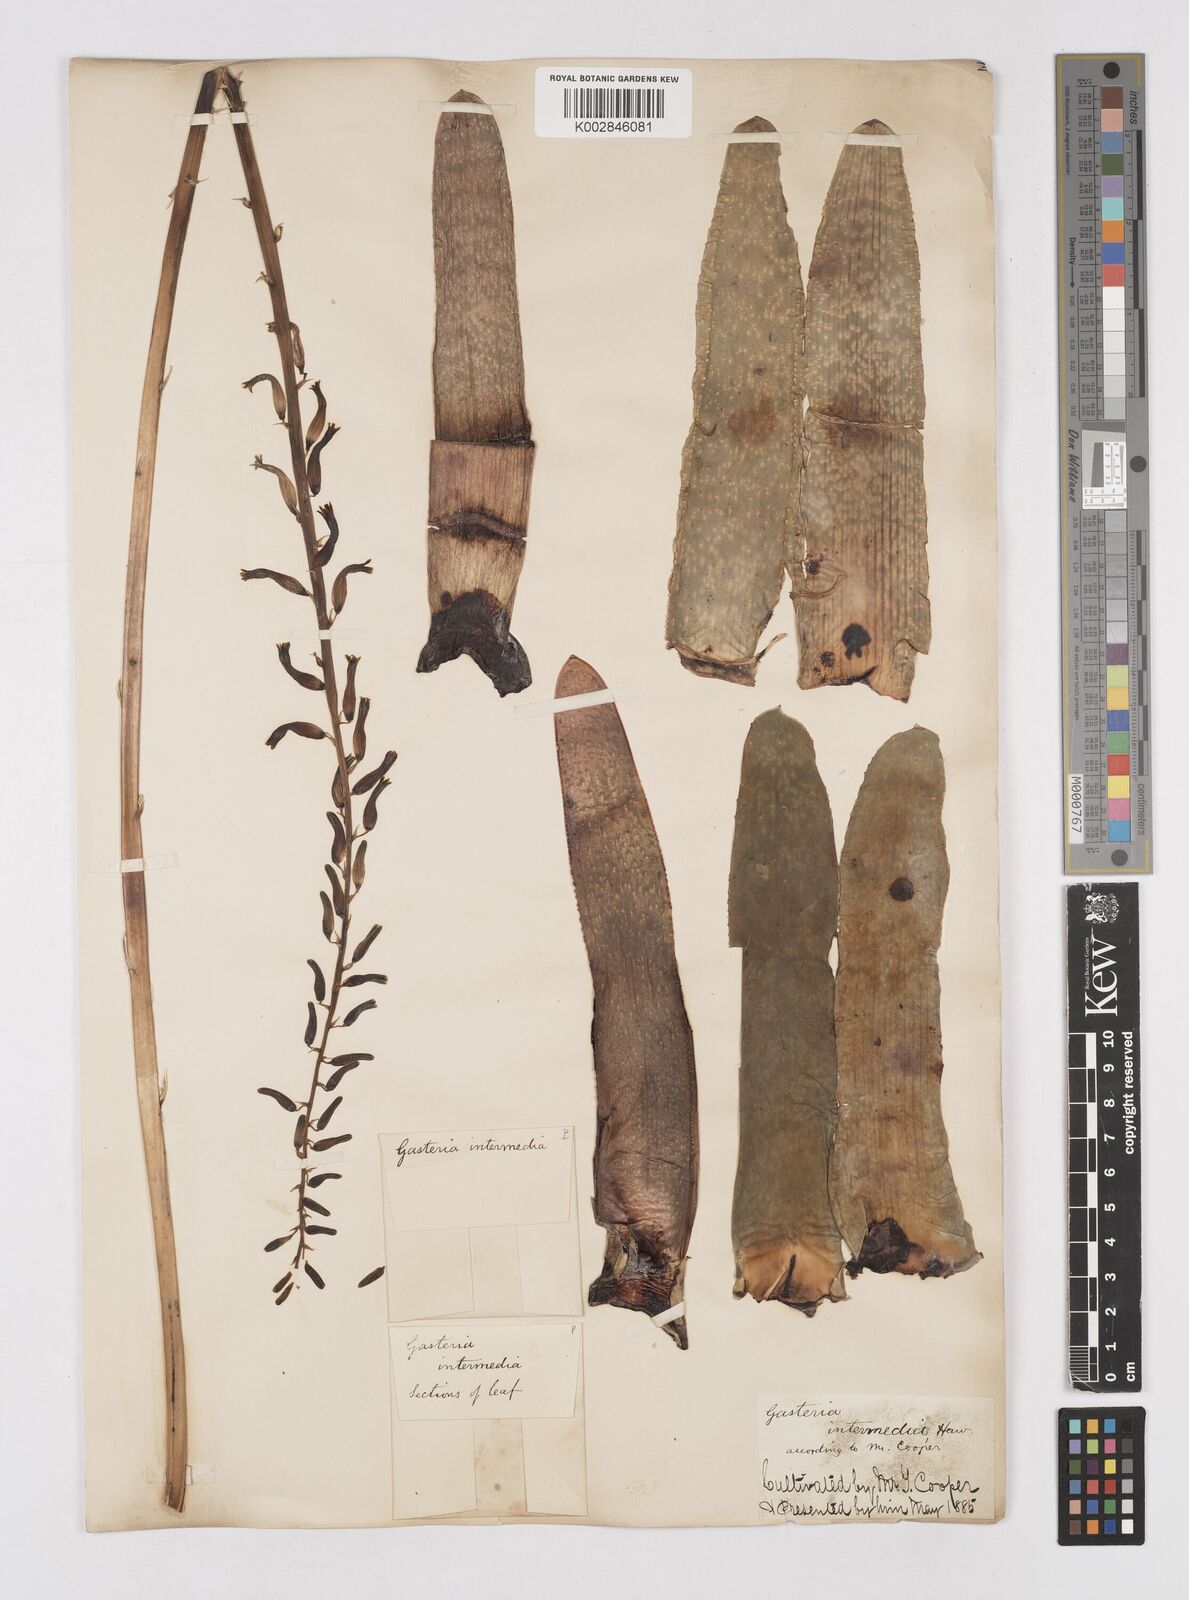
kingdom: Plantae
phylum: Tracheophyta
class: Liliopsida
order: Asparagales
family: Asphodelaceae
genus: Gasteria
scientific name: Gasteria carinata
